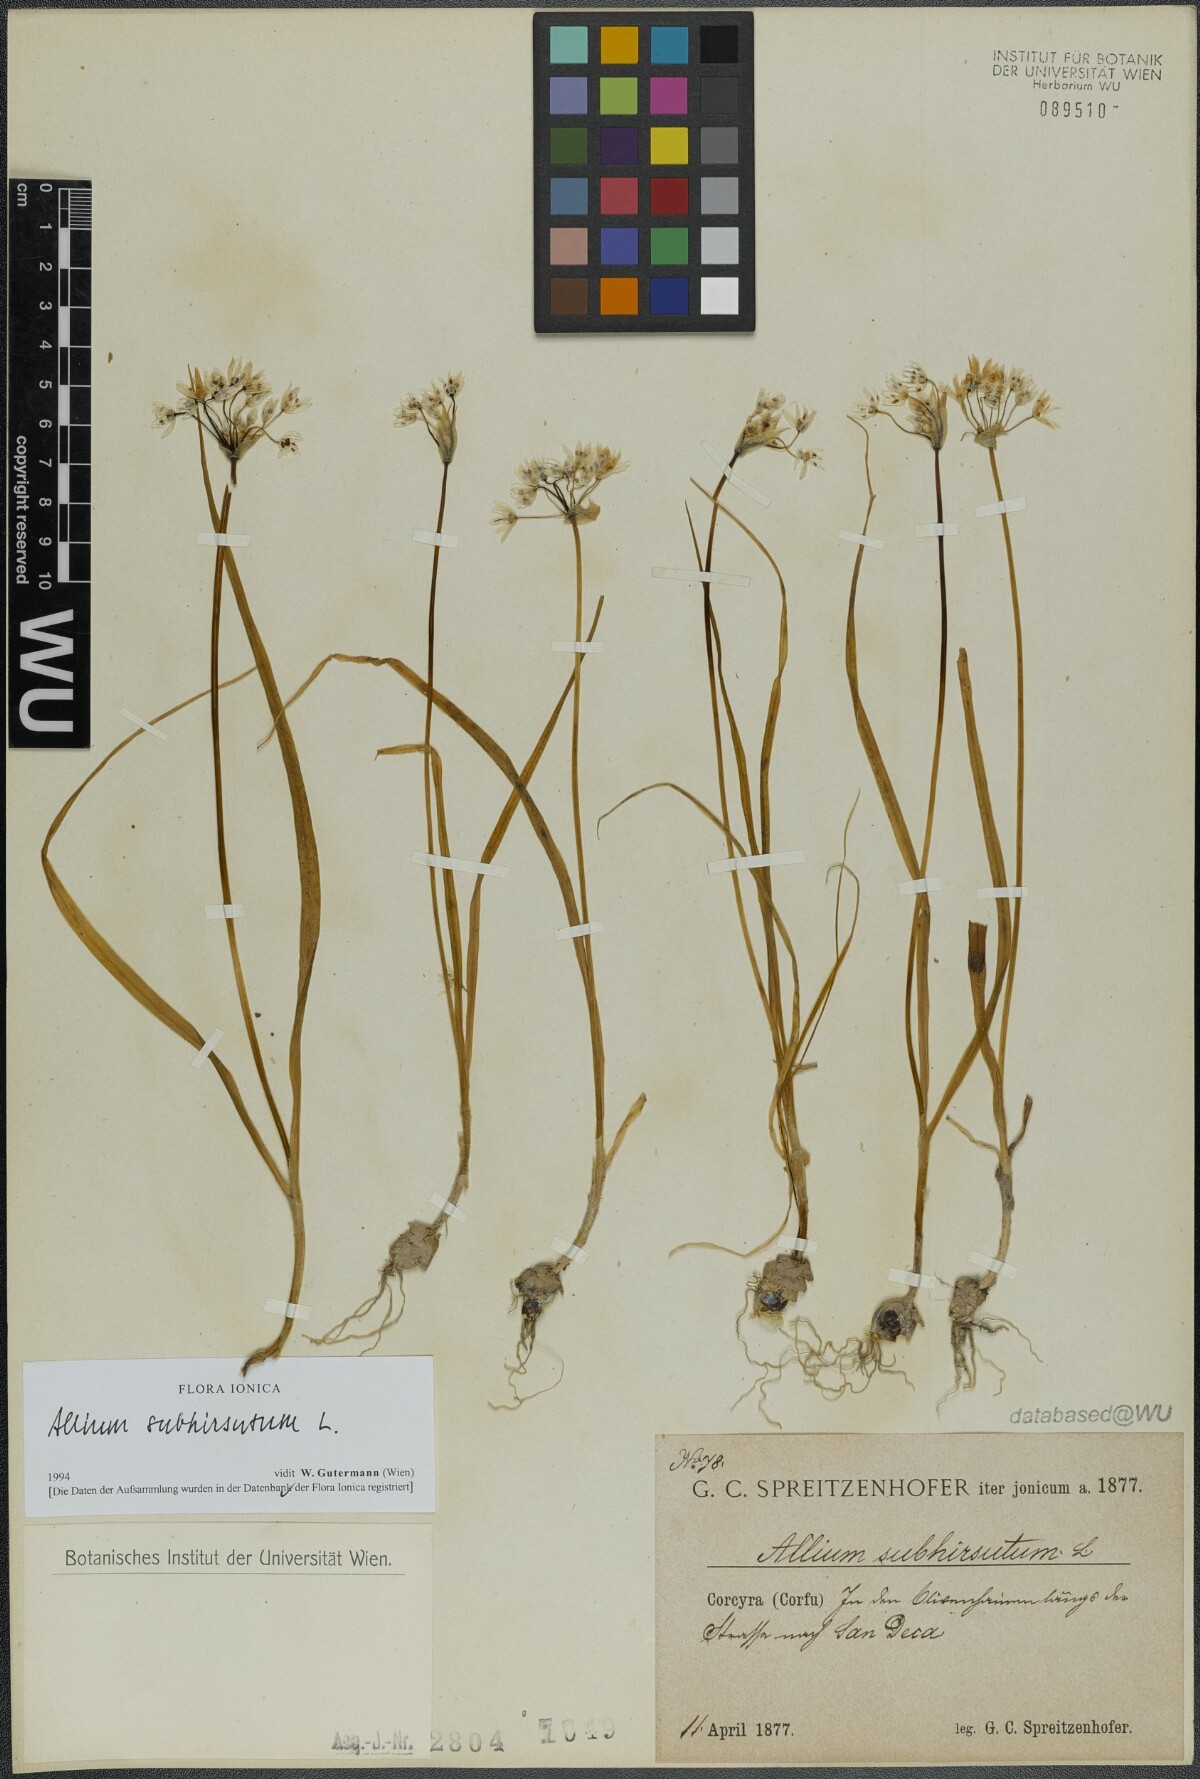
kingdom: Plantae
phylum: Tracheophyta
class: Liliopsida
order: Asparagales
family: Amaryllidaceae
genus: Allium
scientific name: Allium subhirsutum
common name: Hairy garlic
